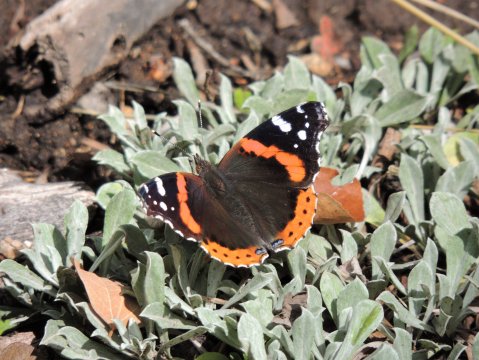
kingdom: Animalia
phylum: Arthropoda
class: Insecta
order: Lepidoptera
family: Nymphalidae
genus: Vanessa
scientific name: Vanessa atalanta
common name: Red Admiral
